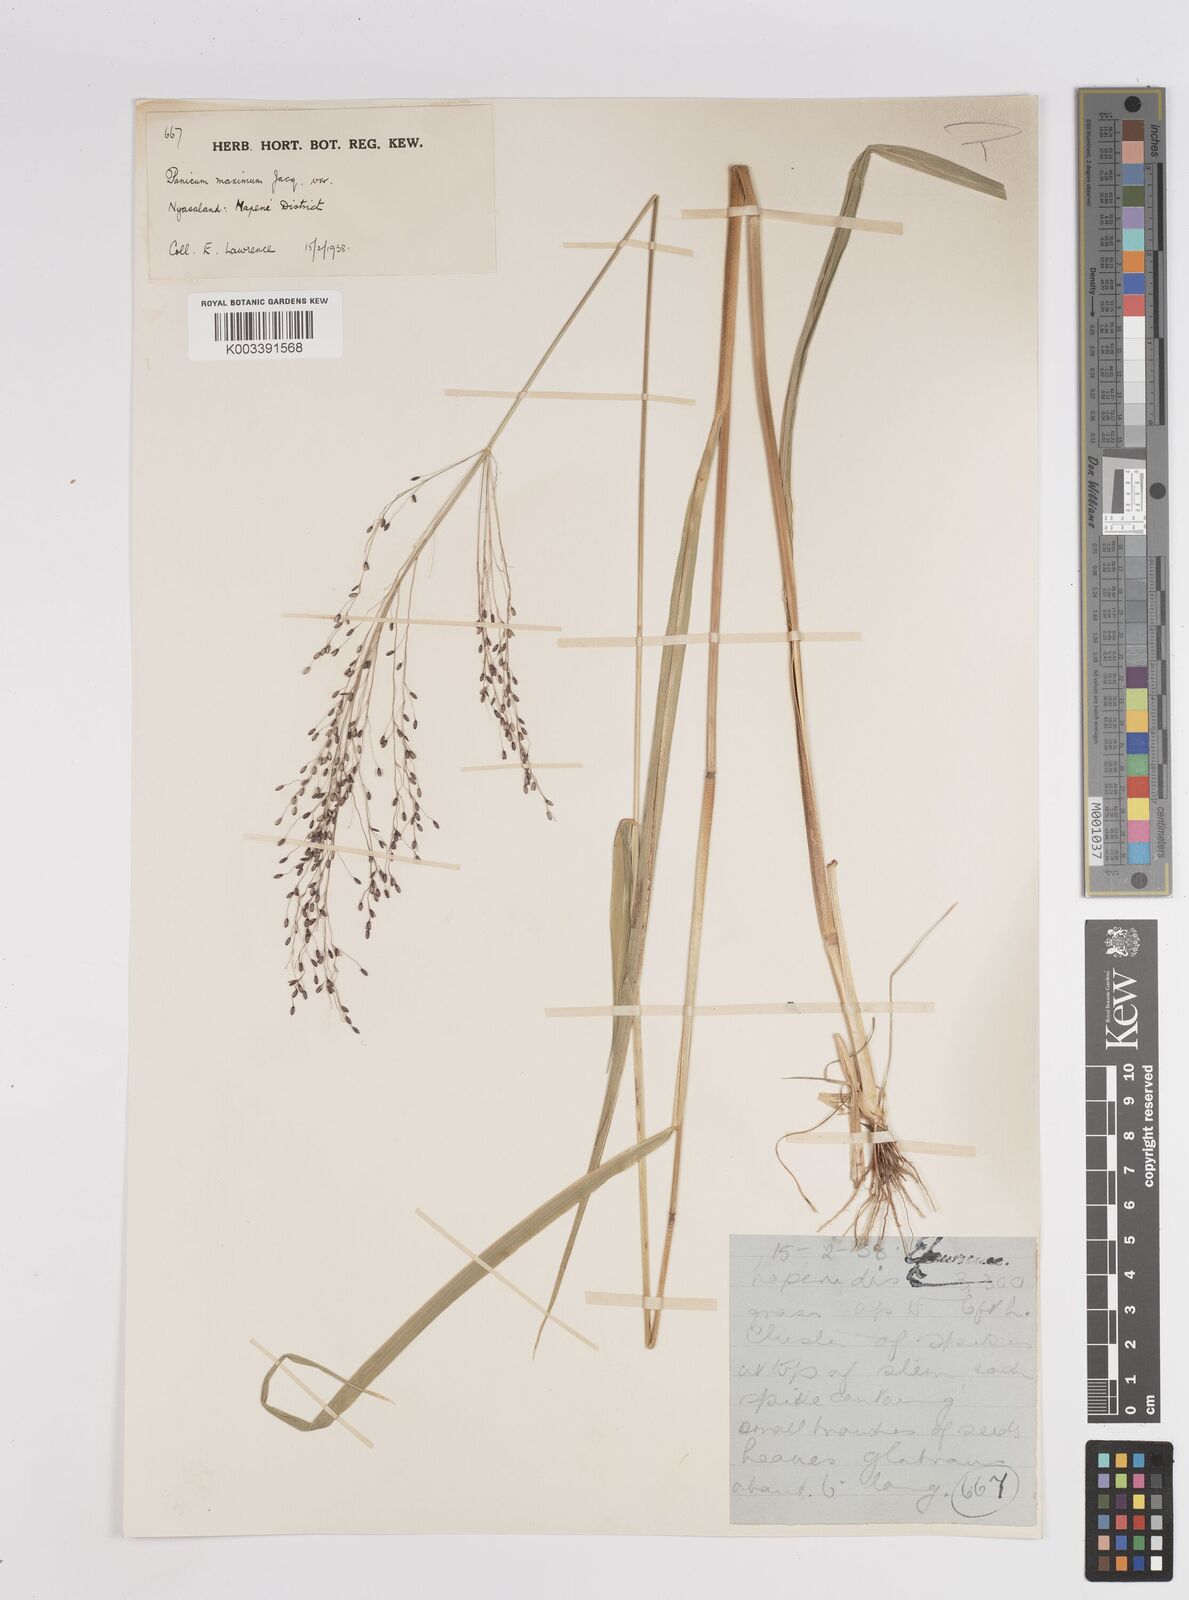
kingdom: Plantae
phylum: Tracheophyta
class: Liliopsida
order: Poales
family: Poaceae
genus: Megathyrsus
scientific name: Megathyrsus maximus
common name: Guineagrass
